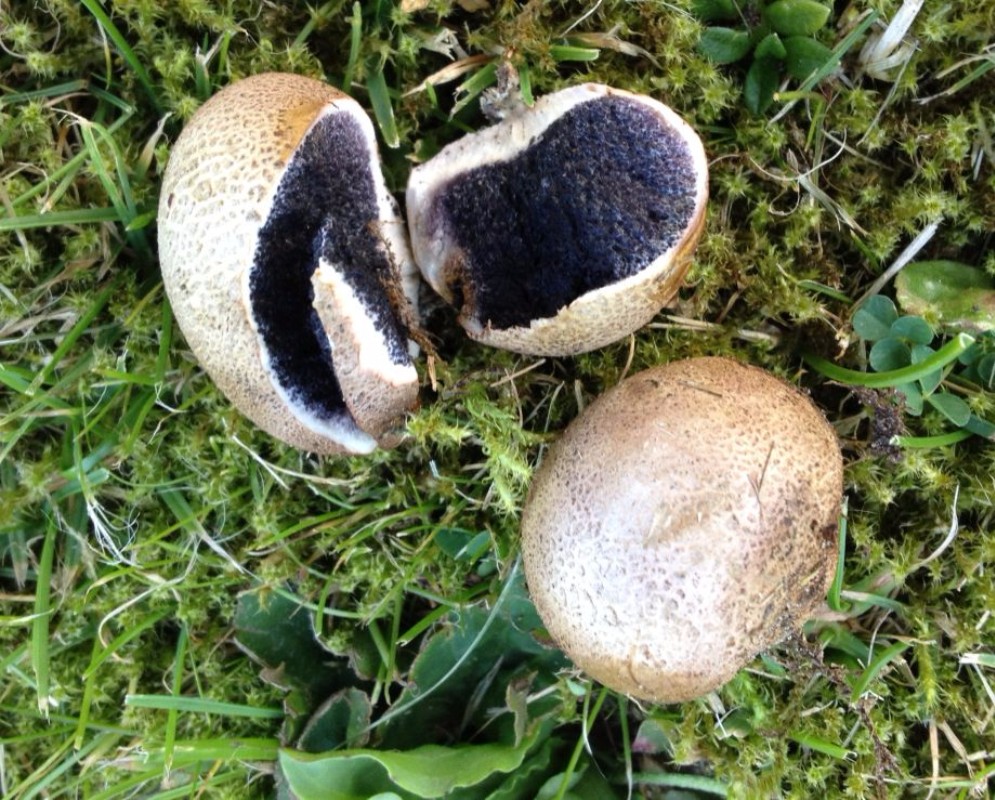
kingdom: Fungi
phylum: Basidiomycota
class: Agaricomycetes
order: Boletales
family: Sclerodermataceae
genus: Scleroderma
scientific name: Scleroderma
